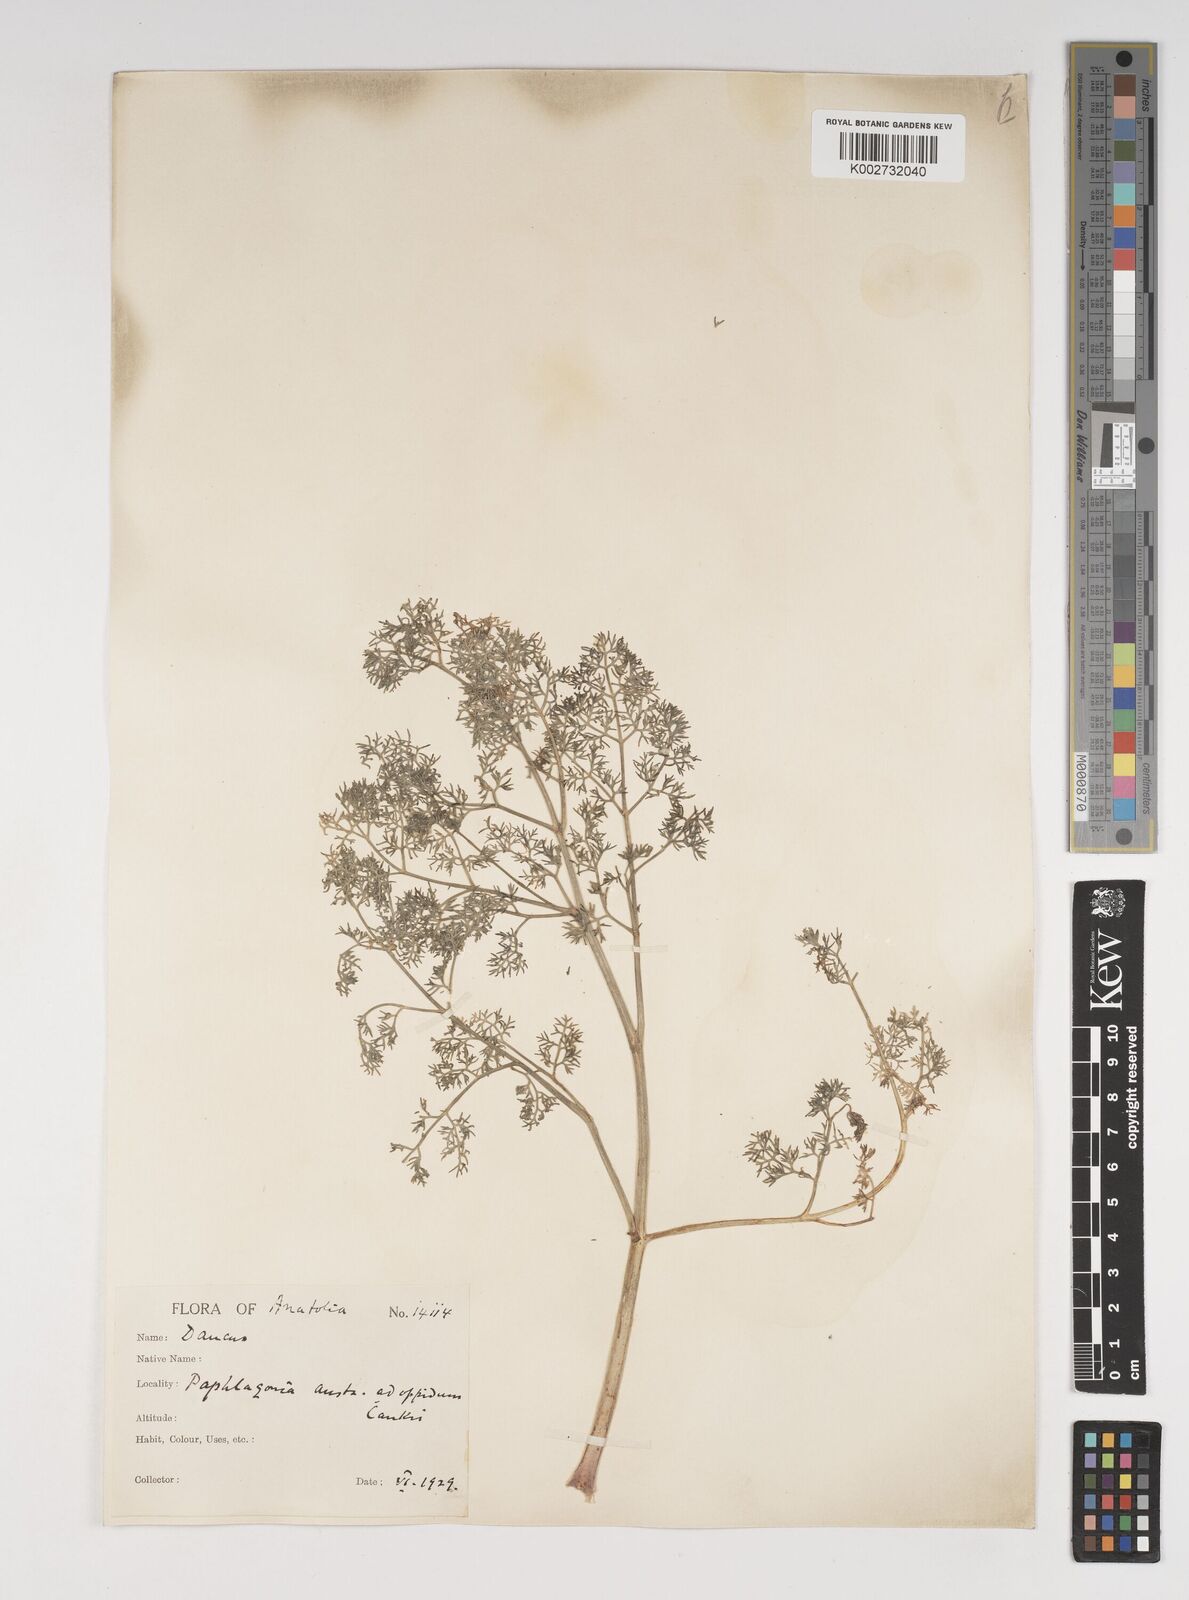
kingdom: Plantae
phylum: Tracheophyta
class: Magnoliopsida
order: Apiales
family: Apiaceae
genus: Astrodaucus
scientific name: Astrodaucus
